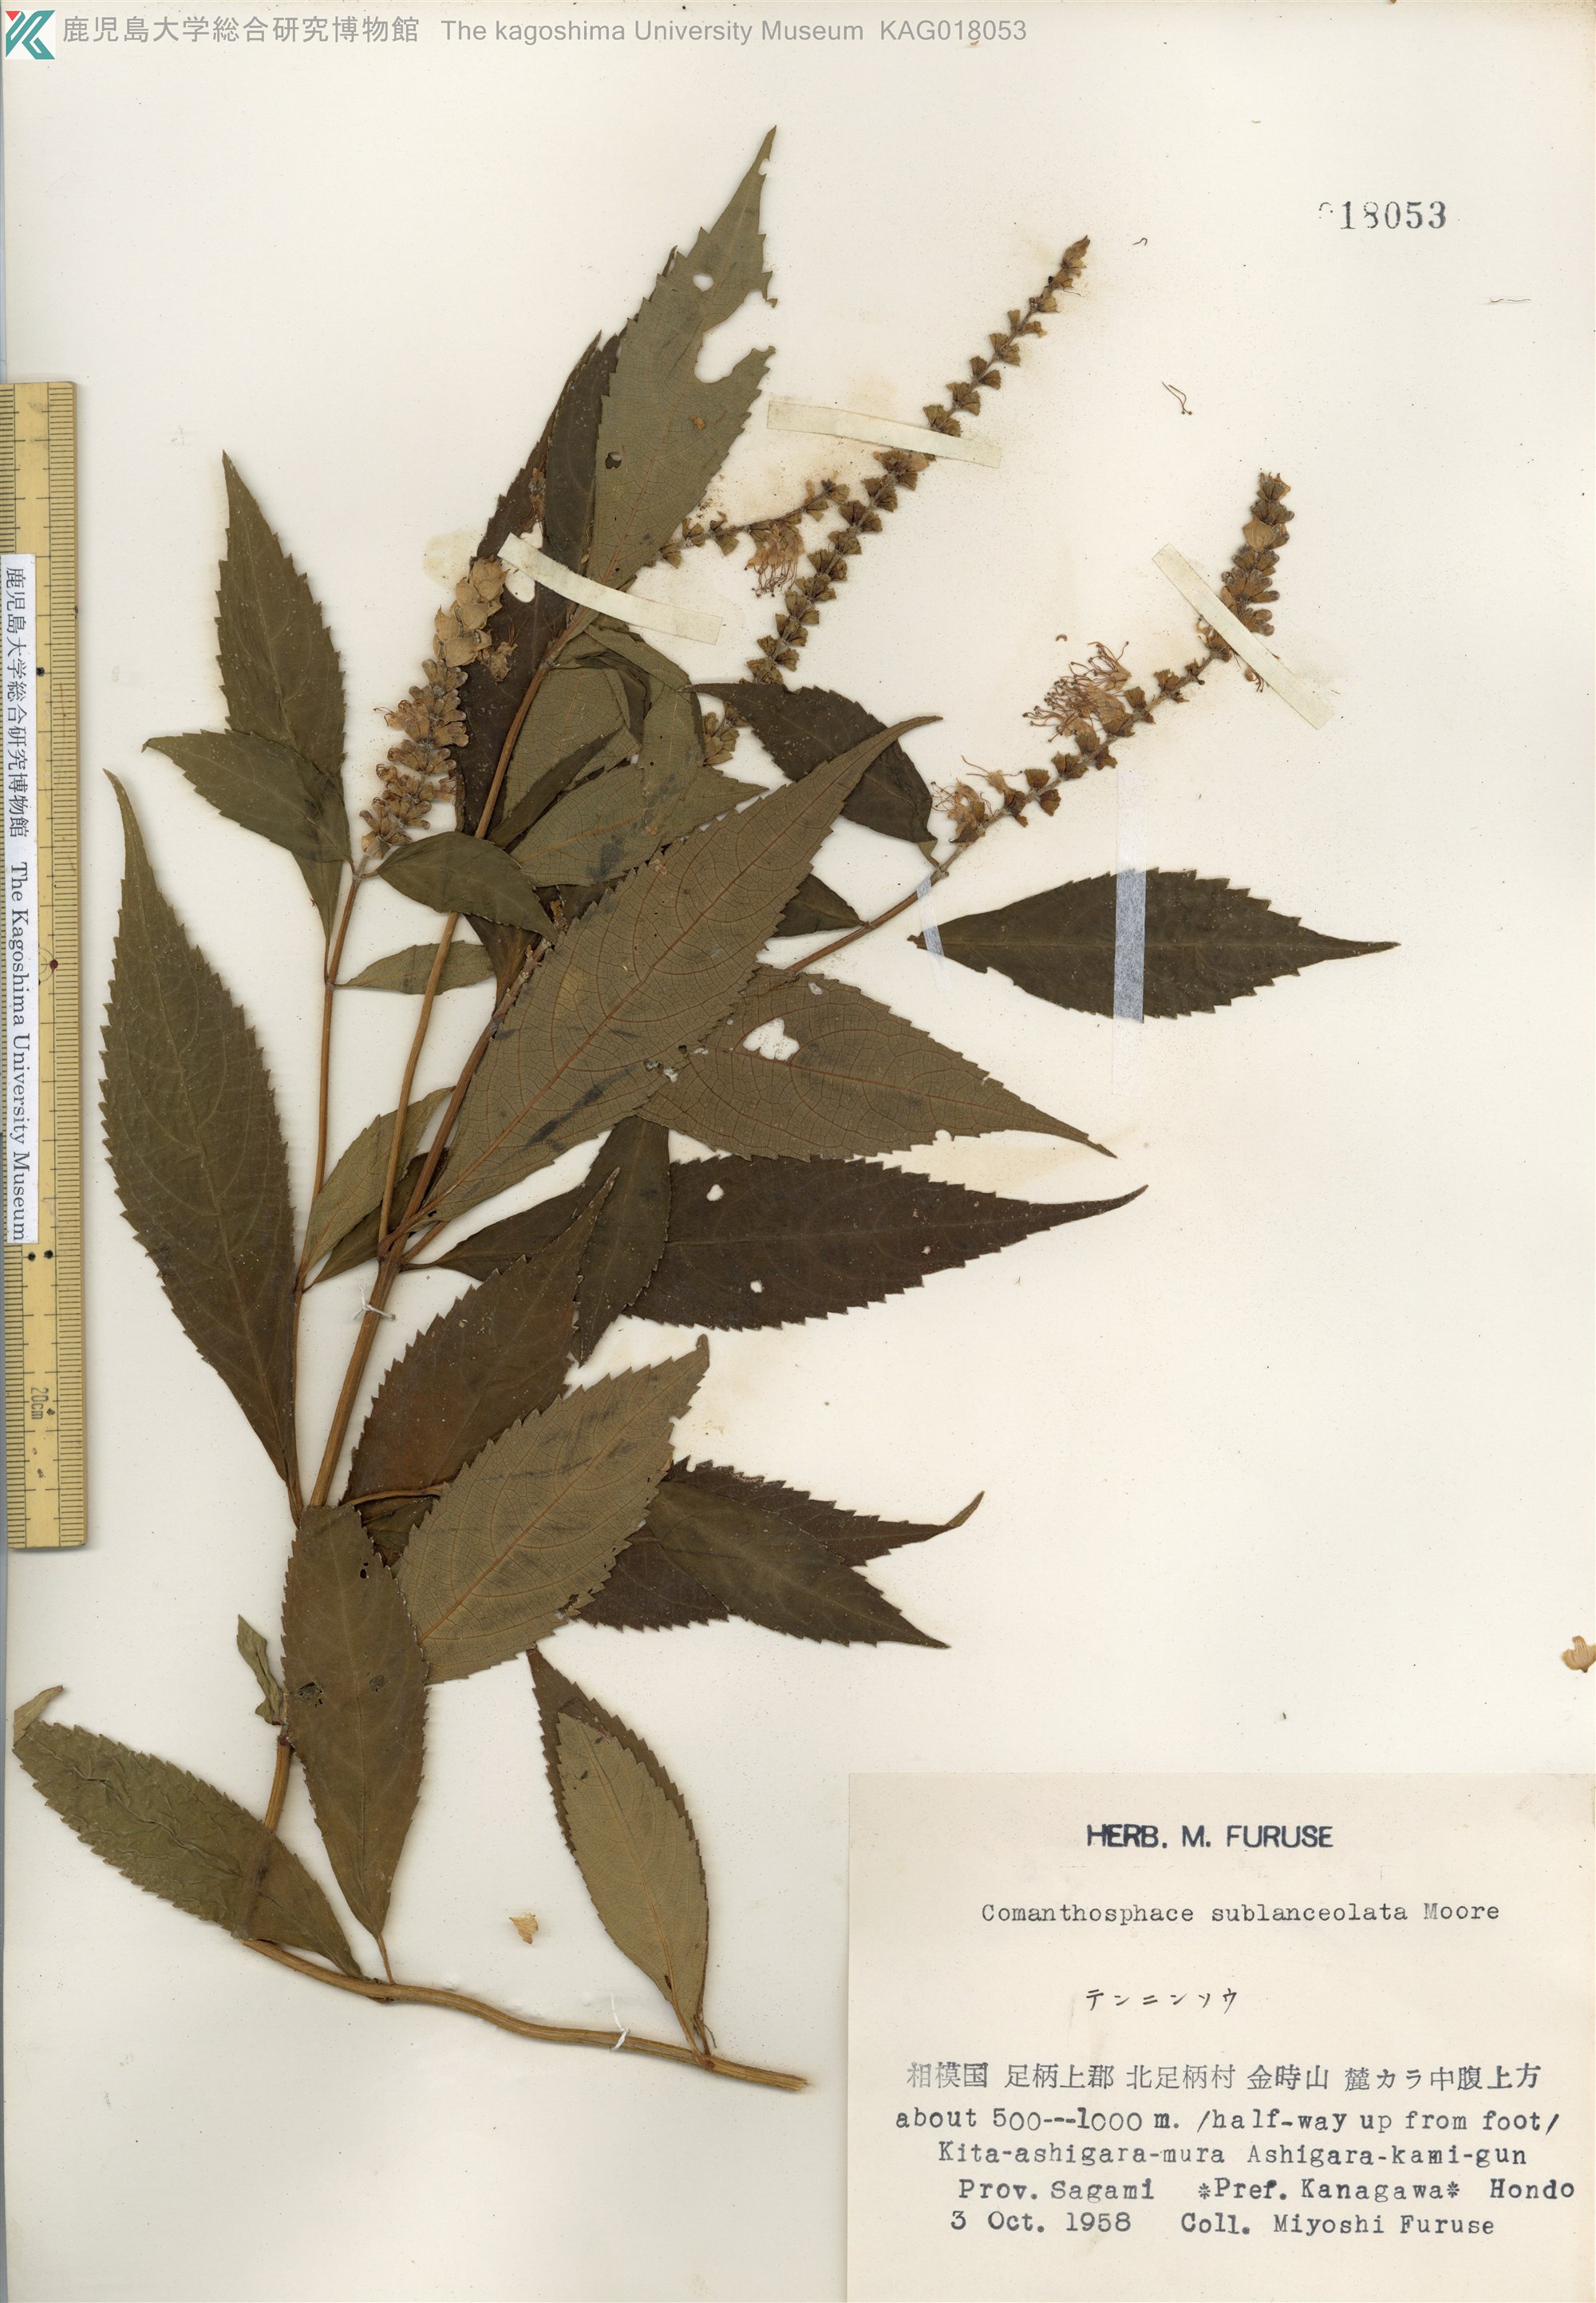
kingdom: Plantae
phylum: Tracheophyta
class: Magnoliopsida
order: Lamiales
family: Lamiaceae
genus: Comanthosphace
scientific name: Comanthosphace japonica
